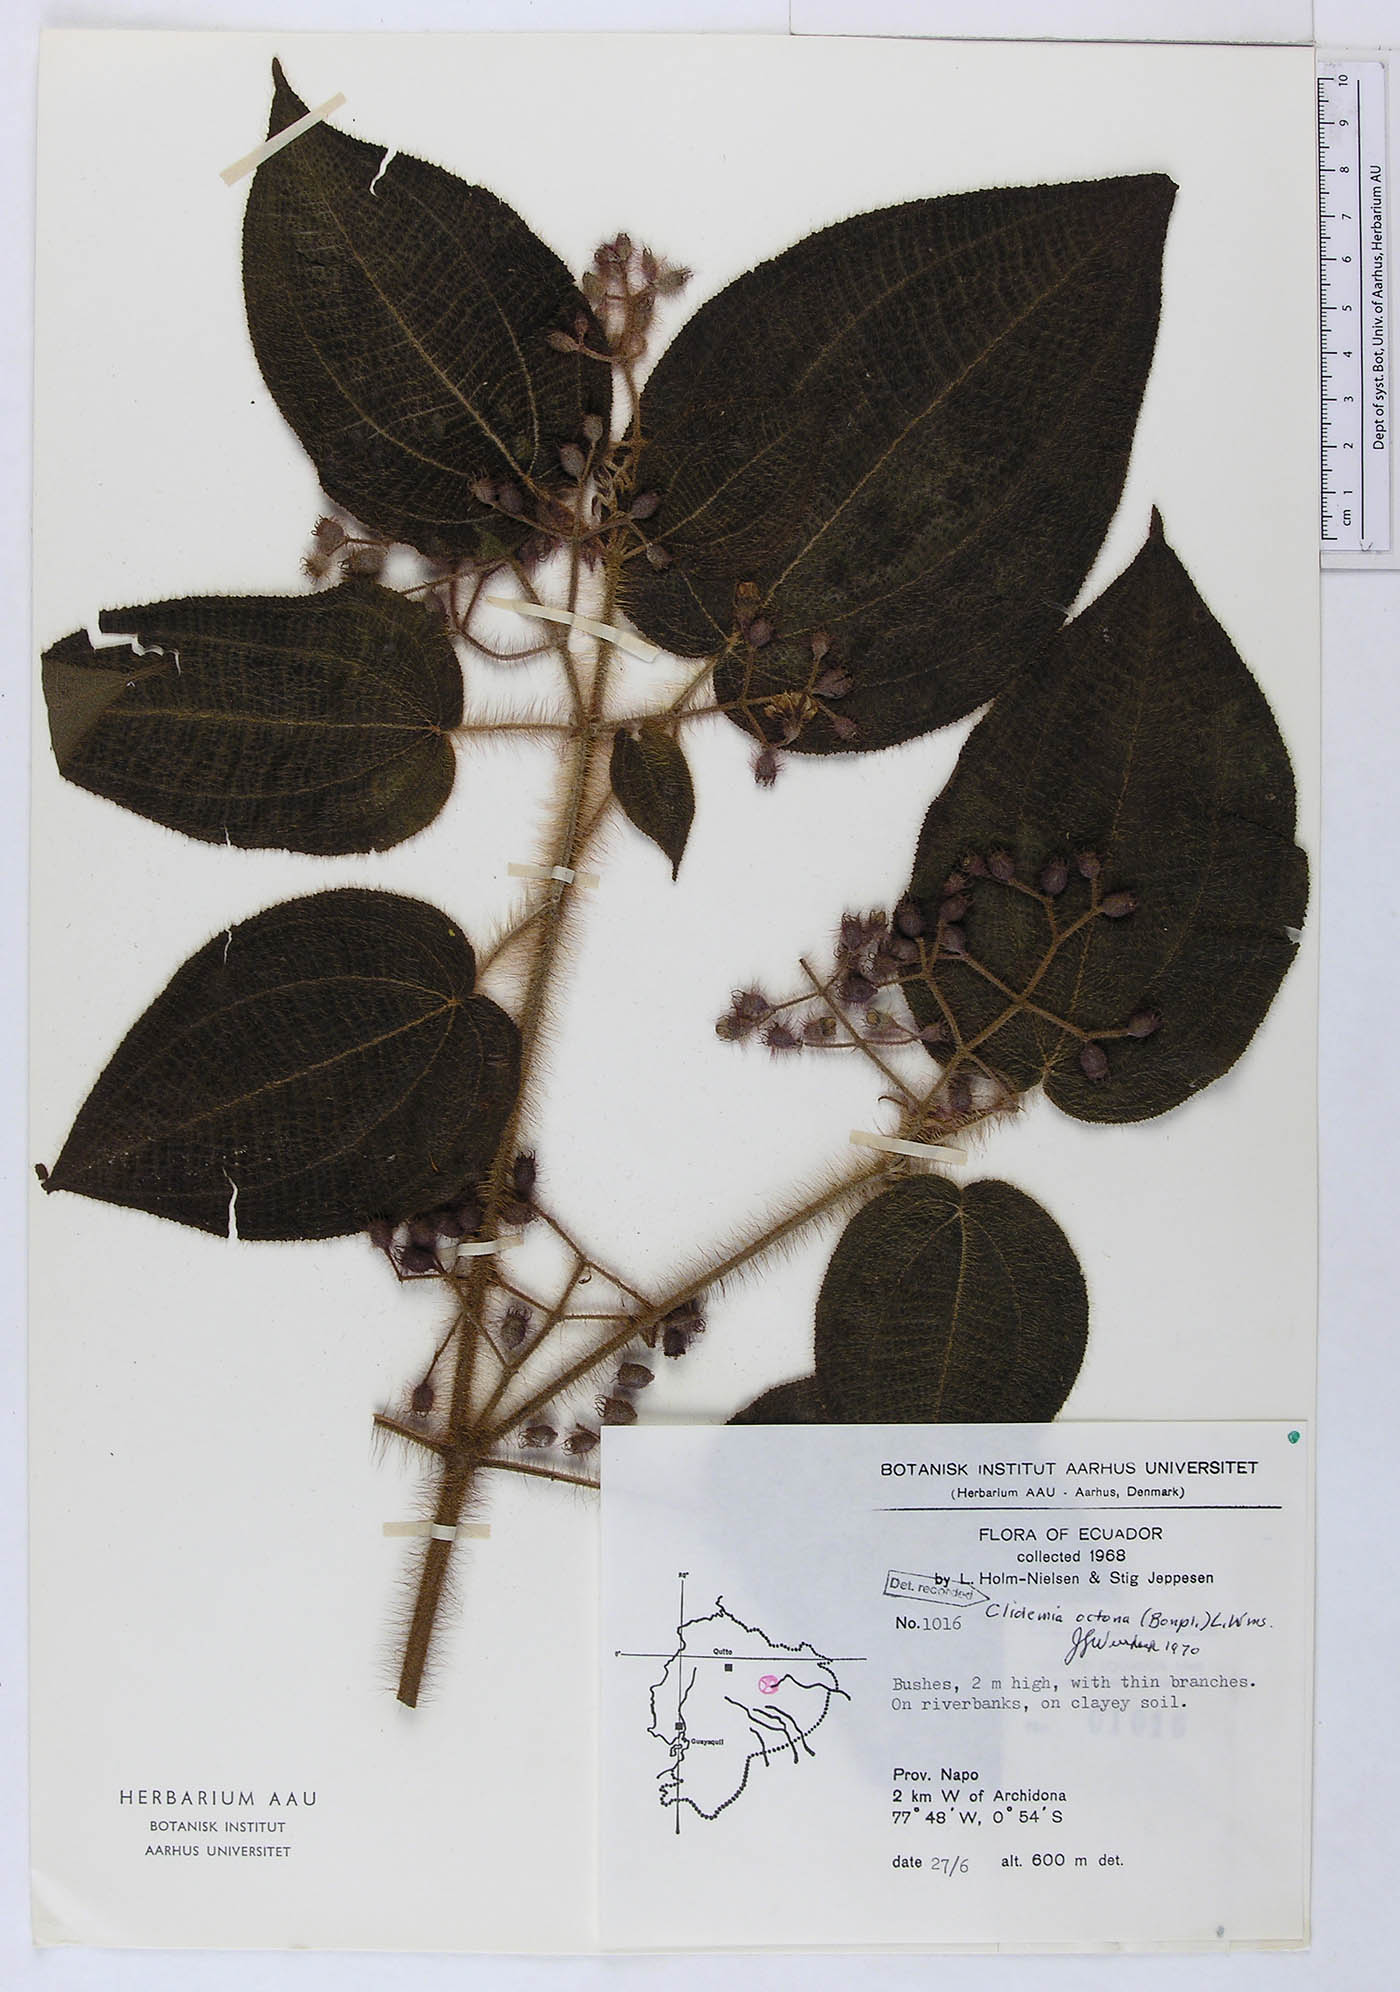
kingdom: Plantae
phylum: Tracheophyta
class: Magnoliopsida
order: Myrtales
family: Melastomataceae
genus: Miconia
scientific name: Miconia octona
